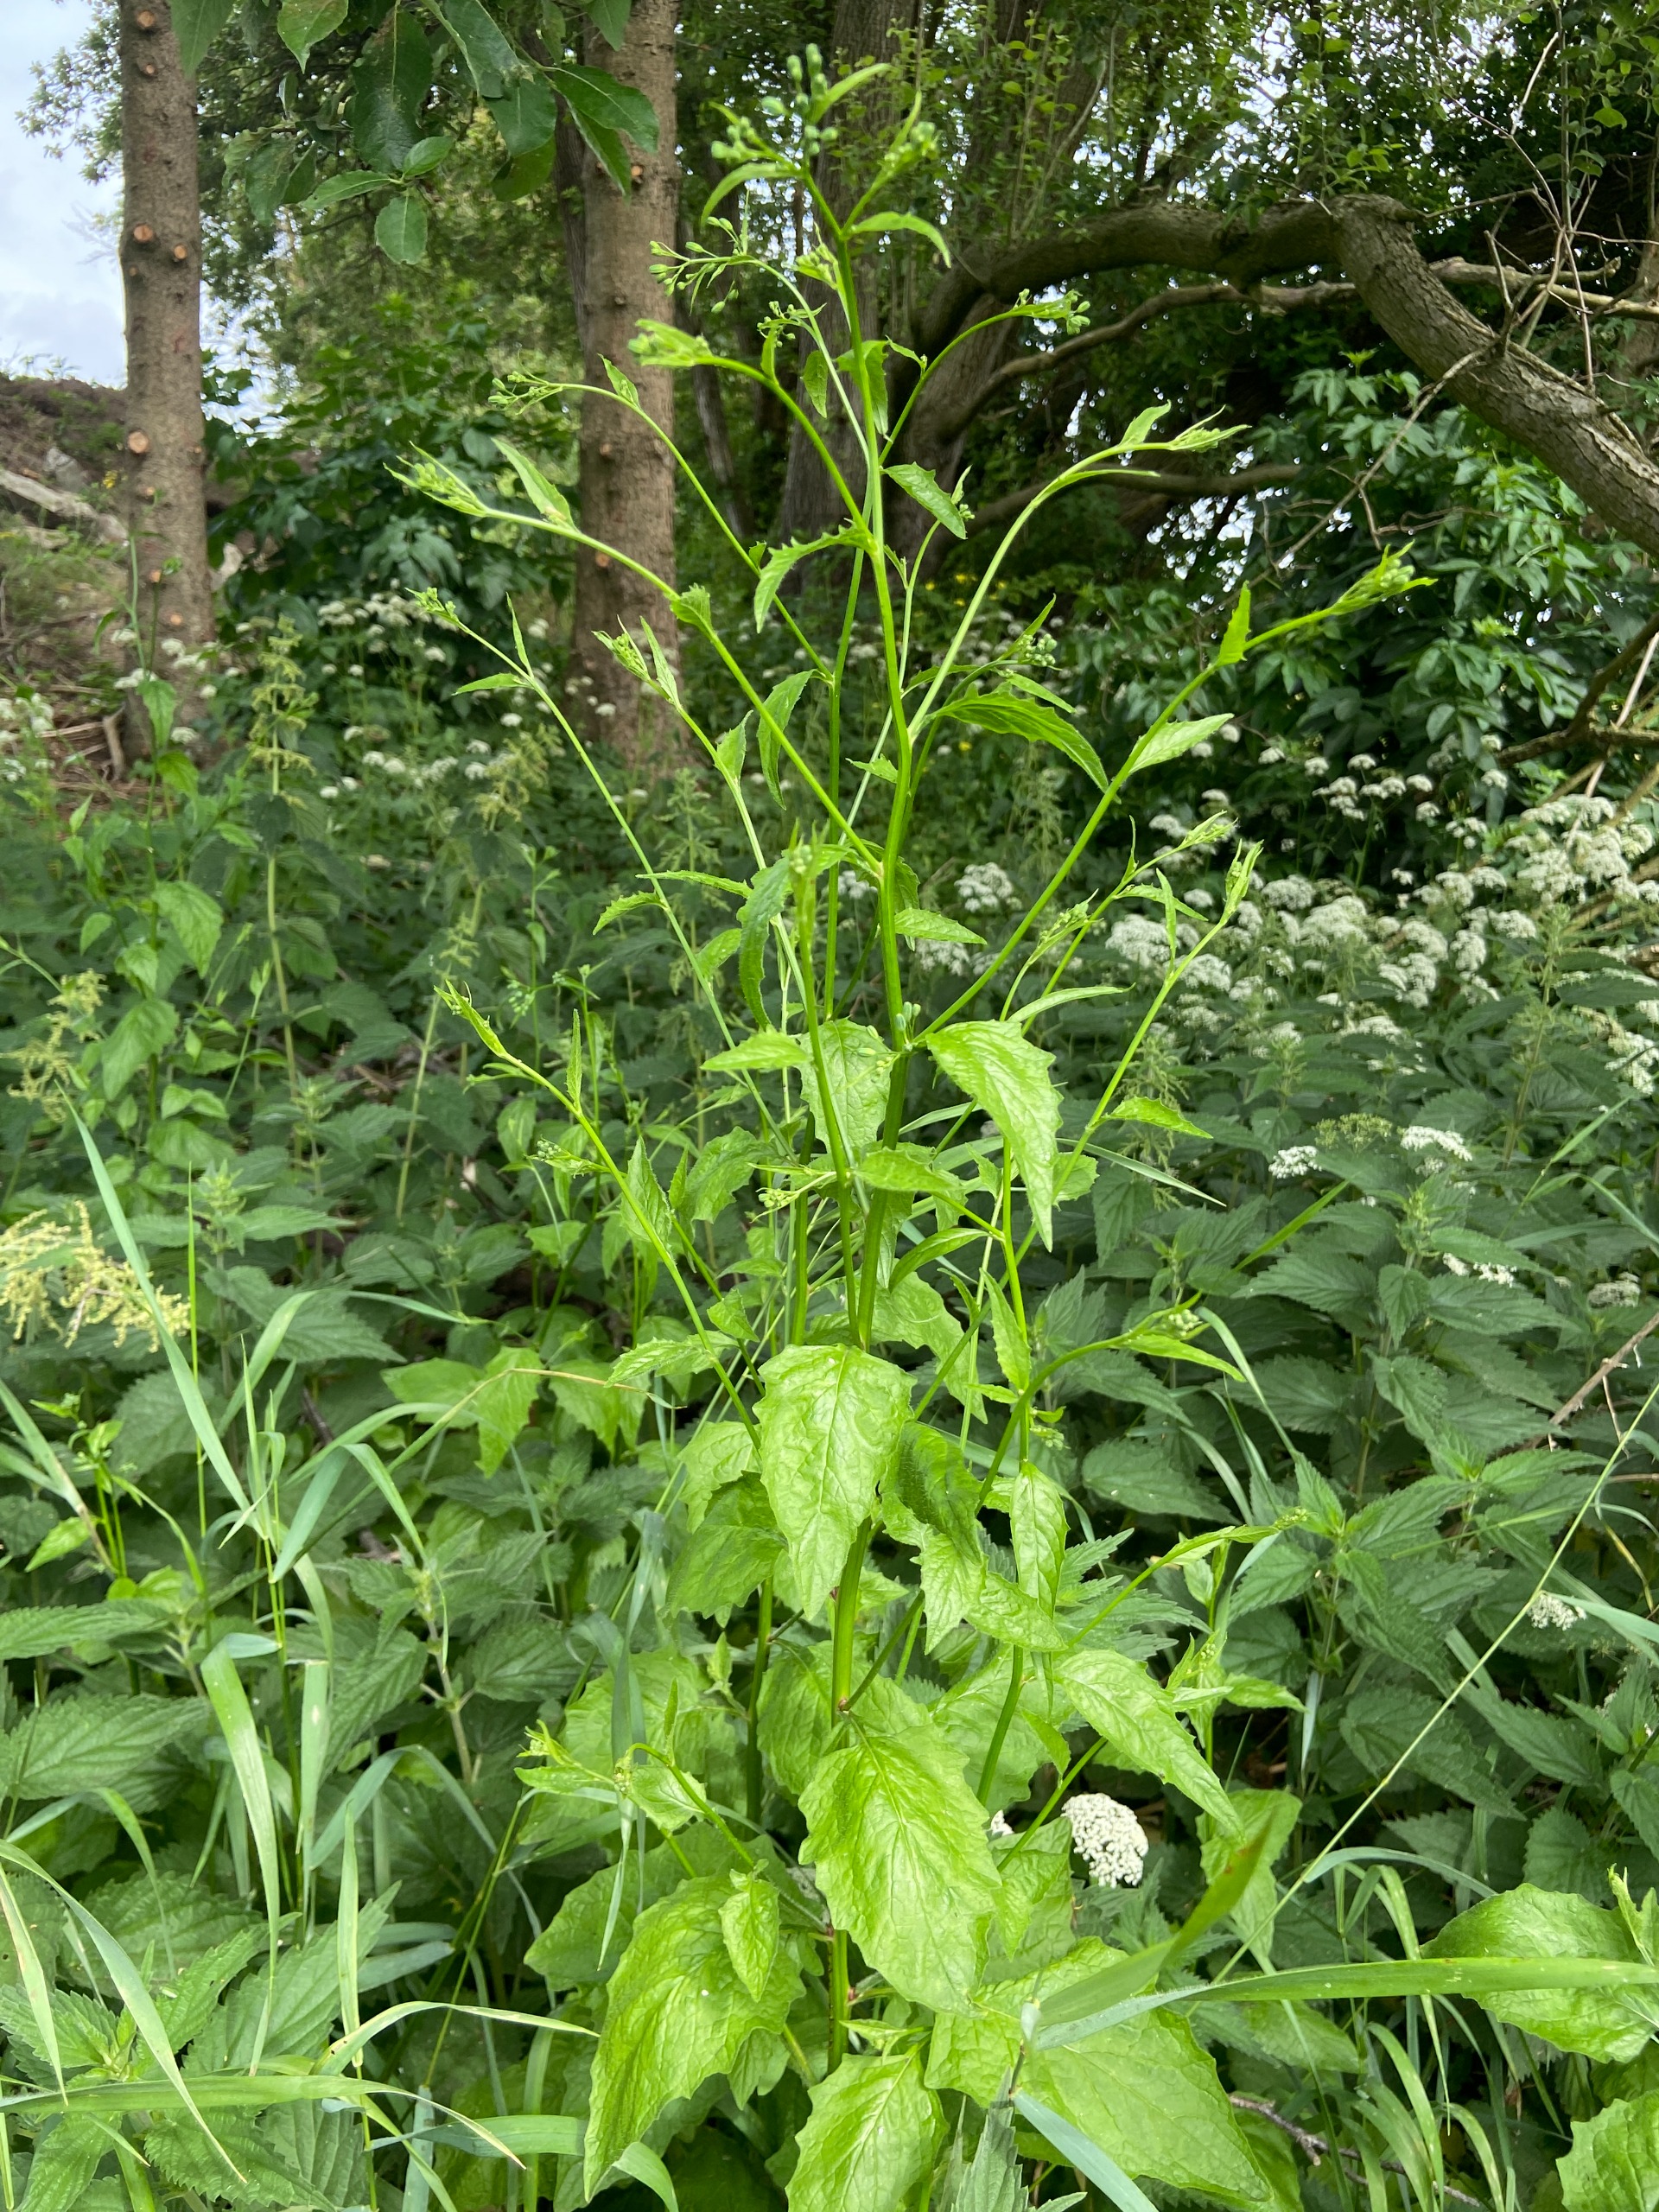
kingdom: Plantae
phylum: Tracheophyta
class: Magnoliopsida
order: Asterales
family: Asteraceae
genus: Lapsana
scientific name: Lapsana communis
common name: Haremad
